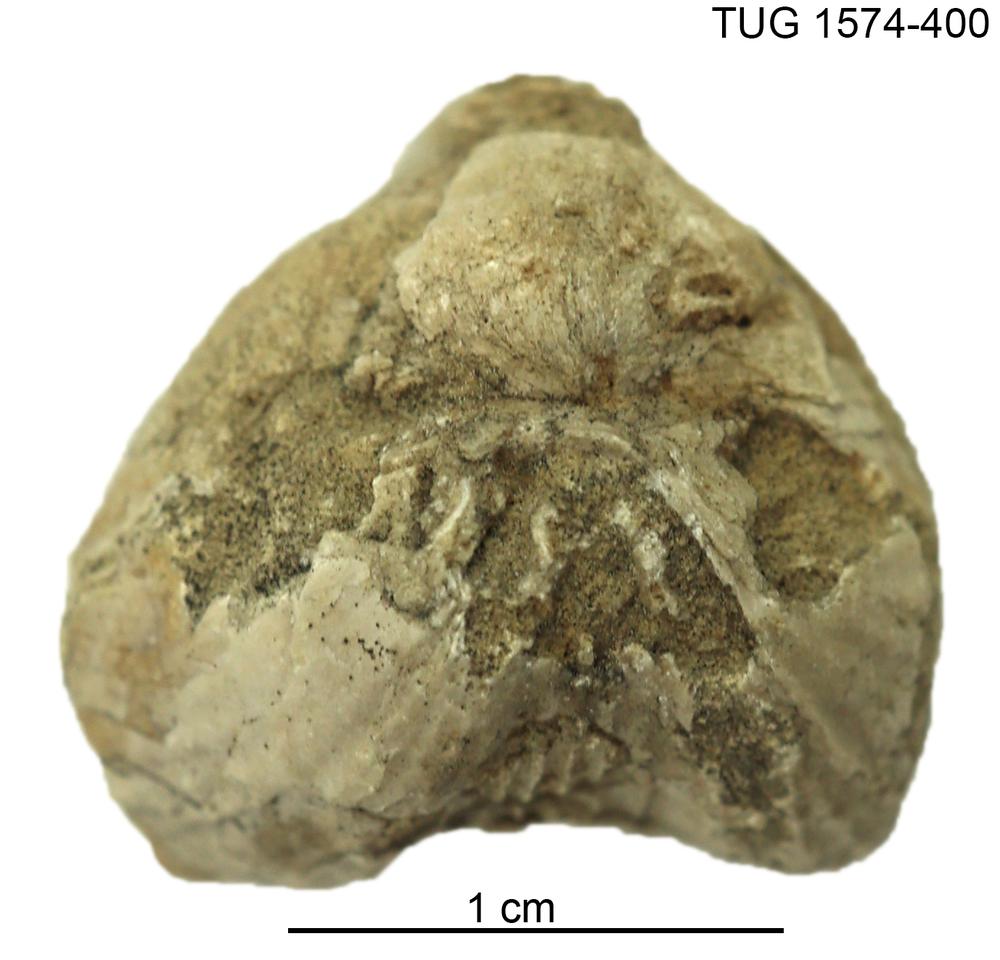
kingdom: Animalia
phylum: Brachiopoda
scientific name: Brachiopoda
